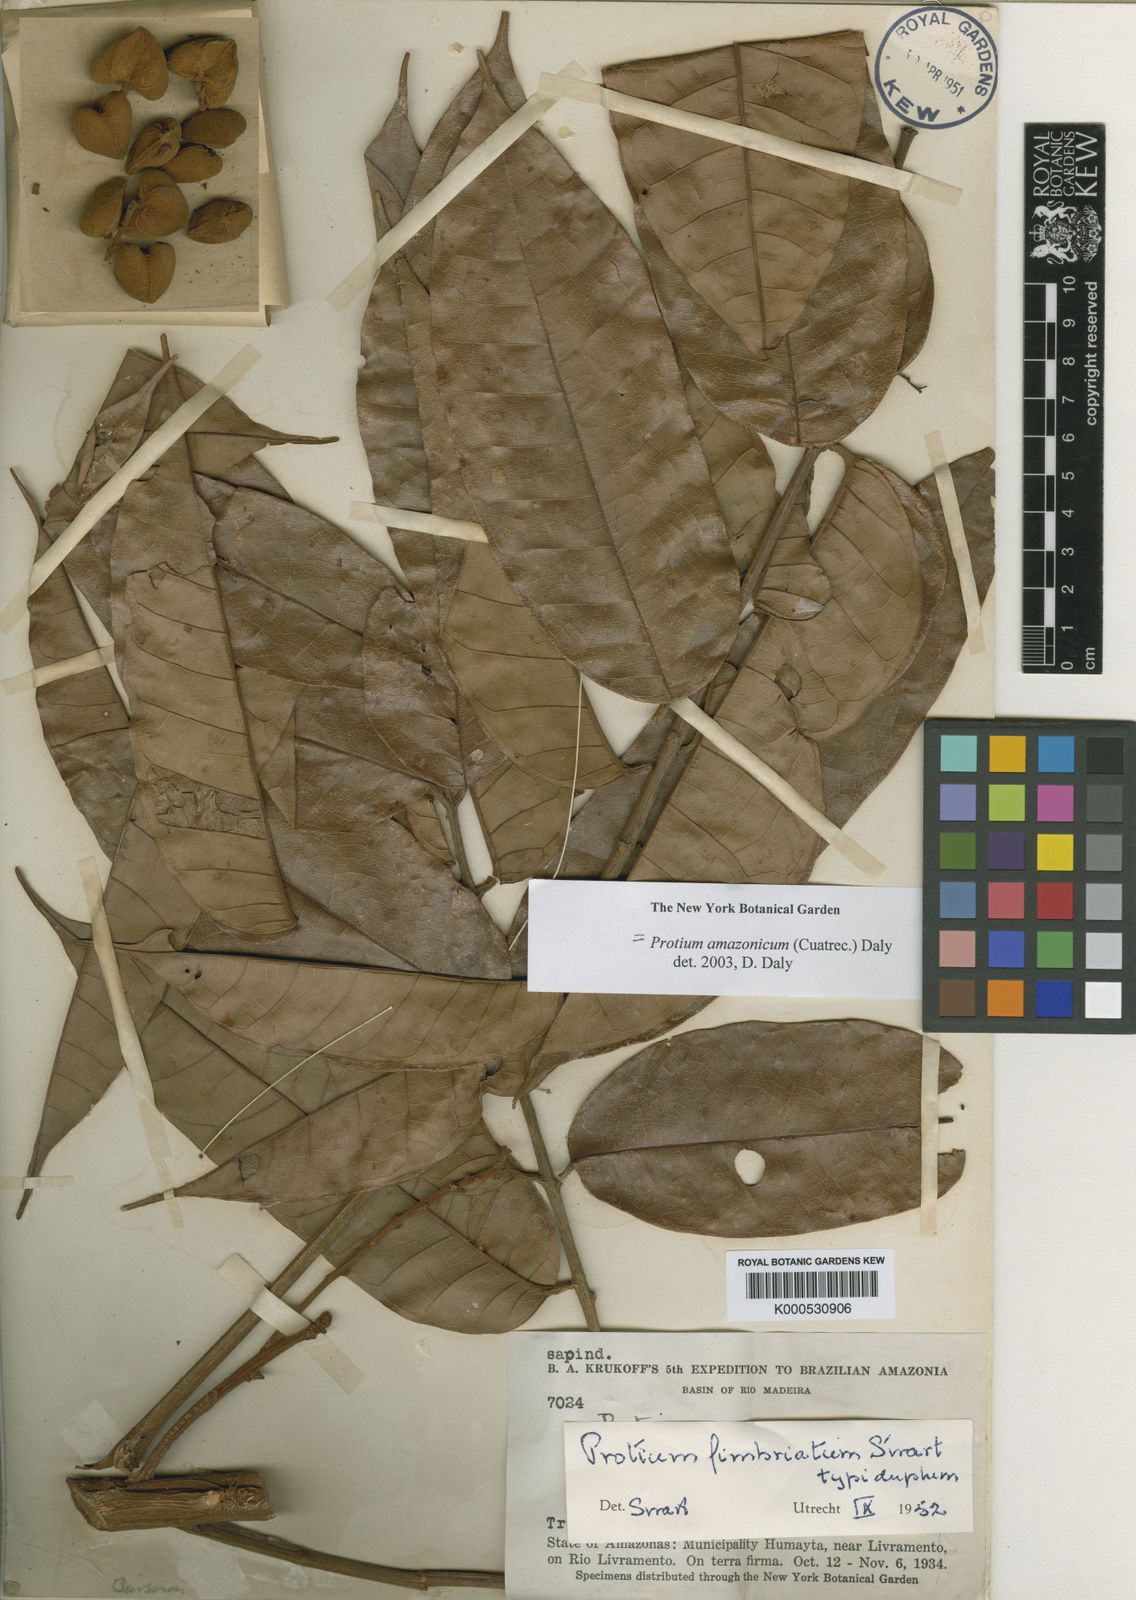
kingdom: Plantae
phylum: Tracheophyta
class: Magnoliopsida
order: Sapindales
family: Burseraceae
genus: Protium
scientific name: Protium amazonicum
